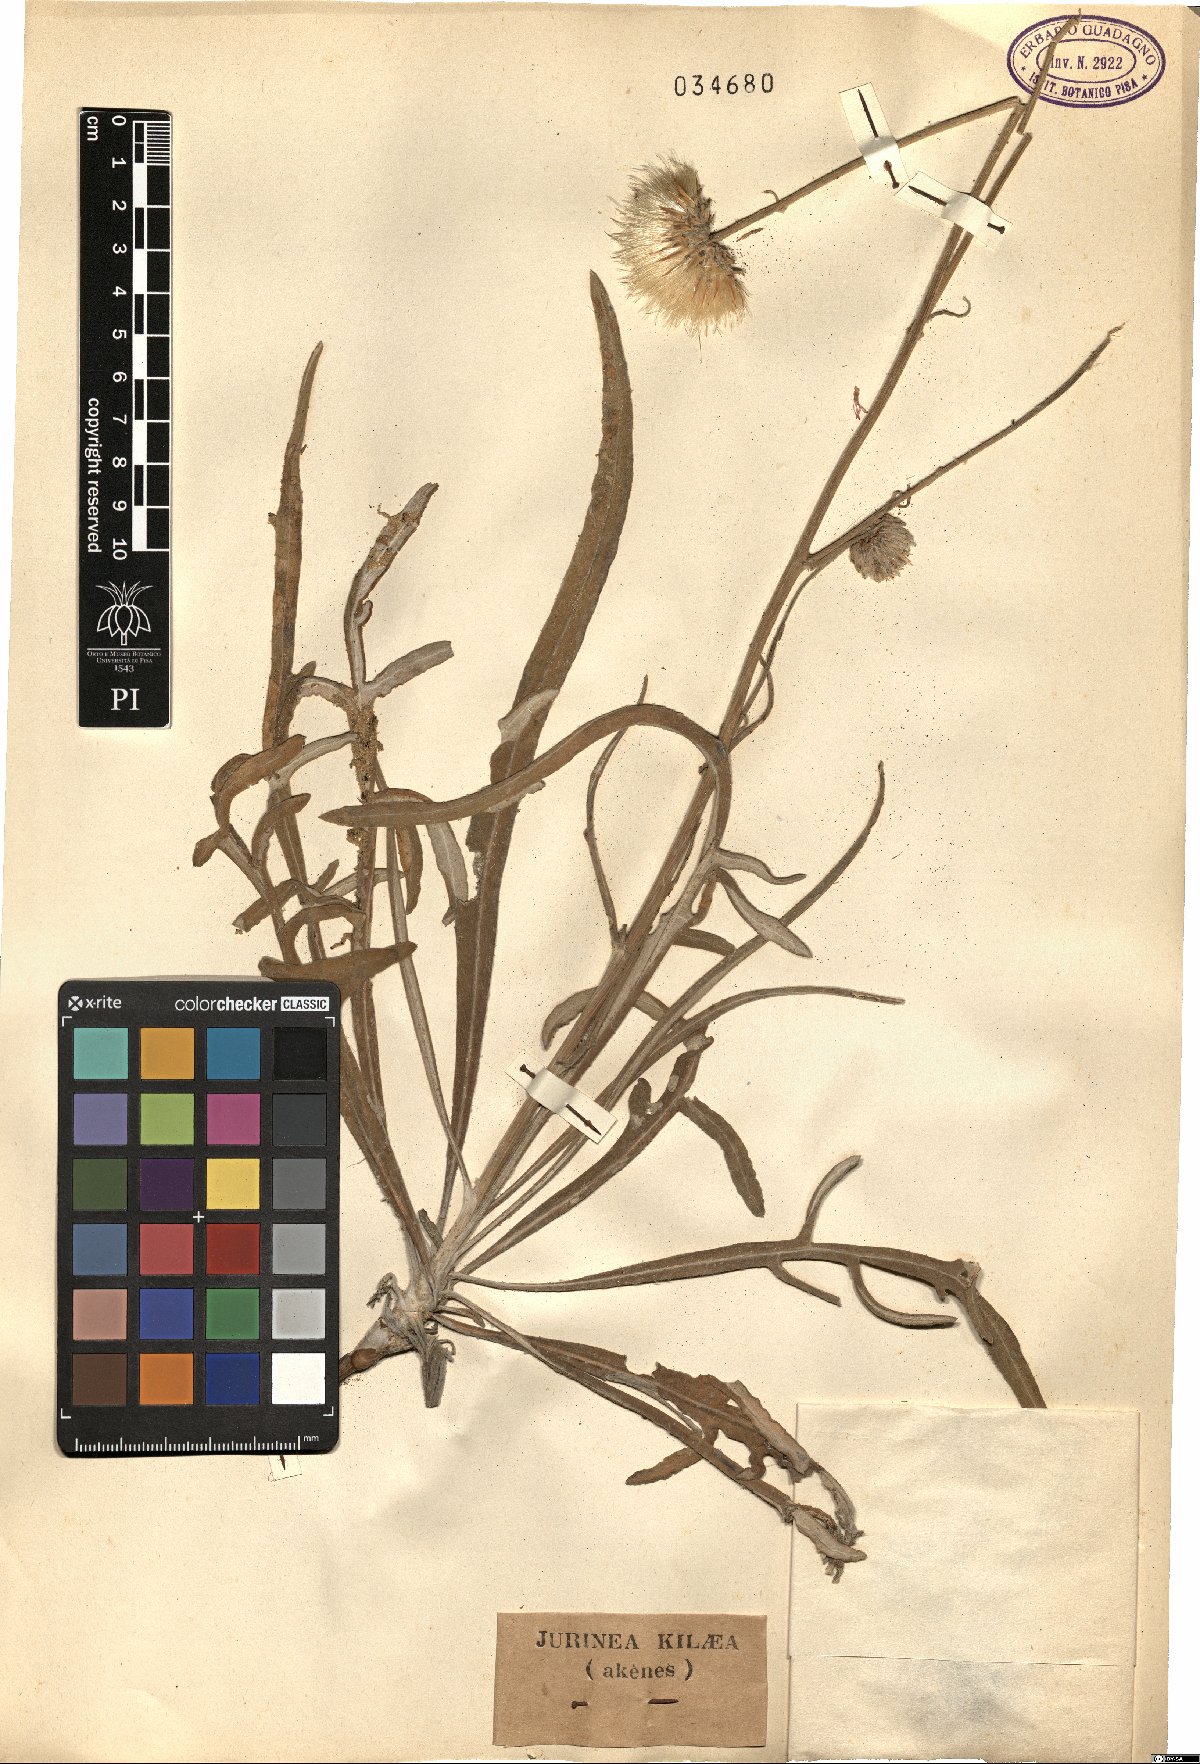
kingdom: Plantae
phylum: Tracheophyta
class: Magnoliopsida
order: Asterales
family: Asteraceae
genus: Jurinea
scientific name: Jurinea kilaea
